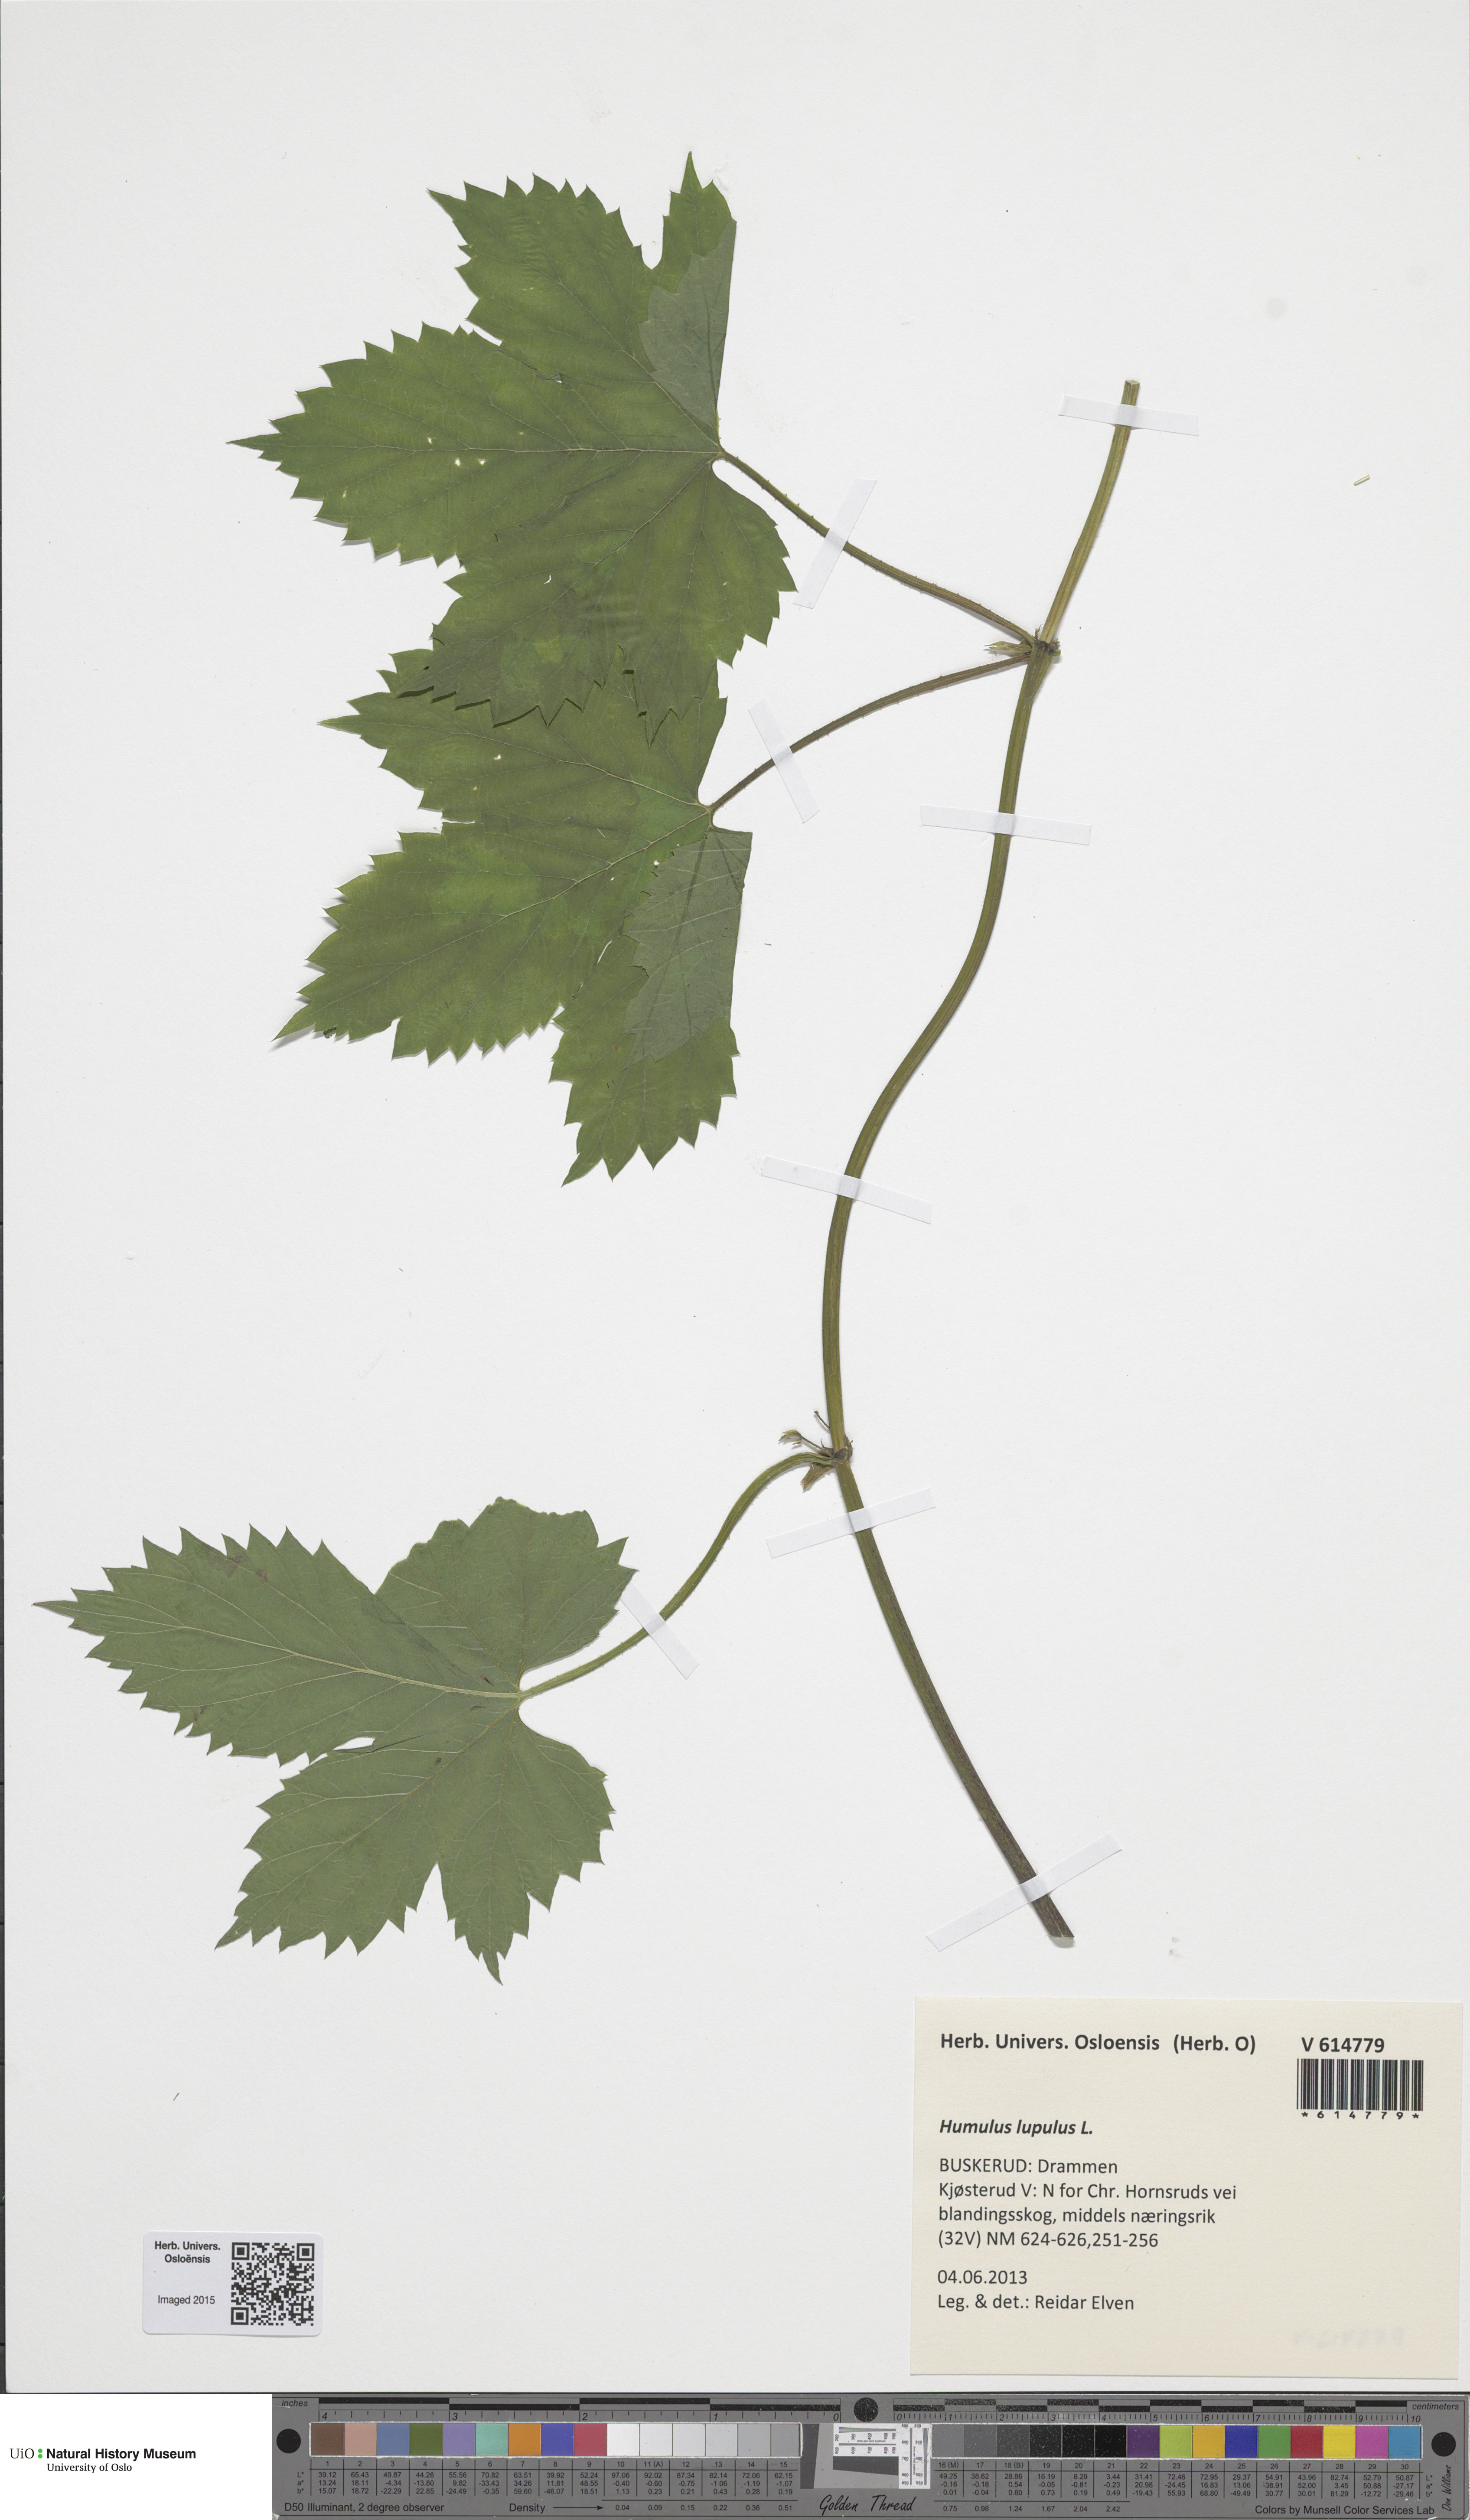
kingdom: Plantae
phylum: Tracheophyta
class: Magnoliopsida
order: Rosales
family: Cannabaceae
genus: Humulus
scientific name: Humulus lupulus
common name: Hop
